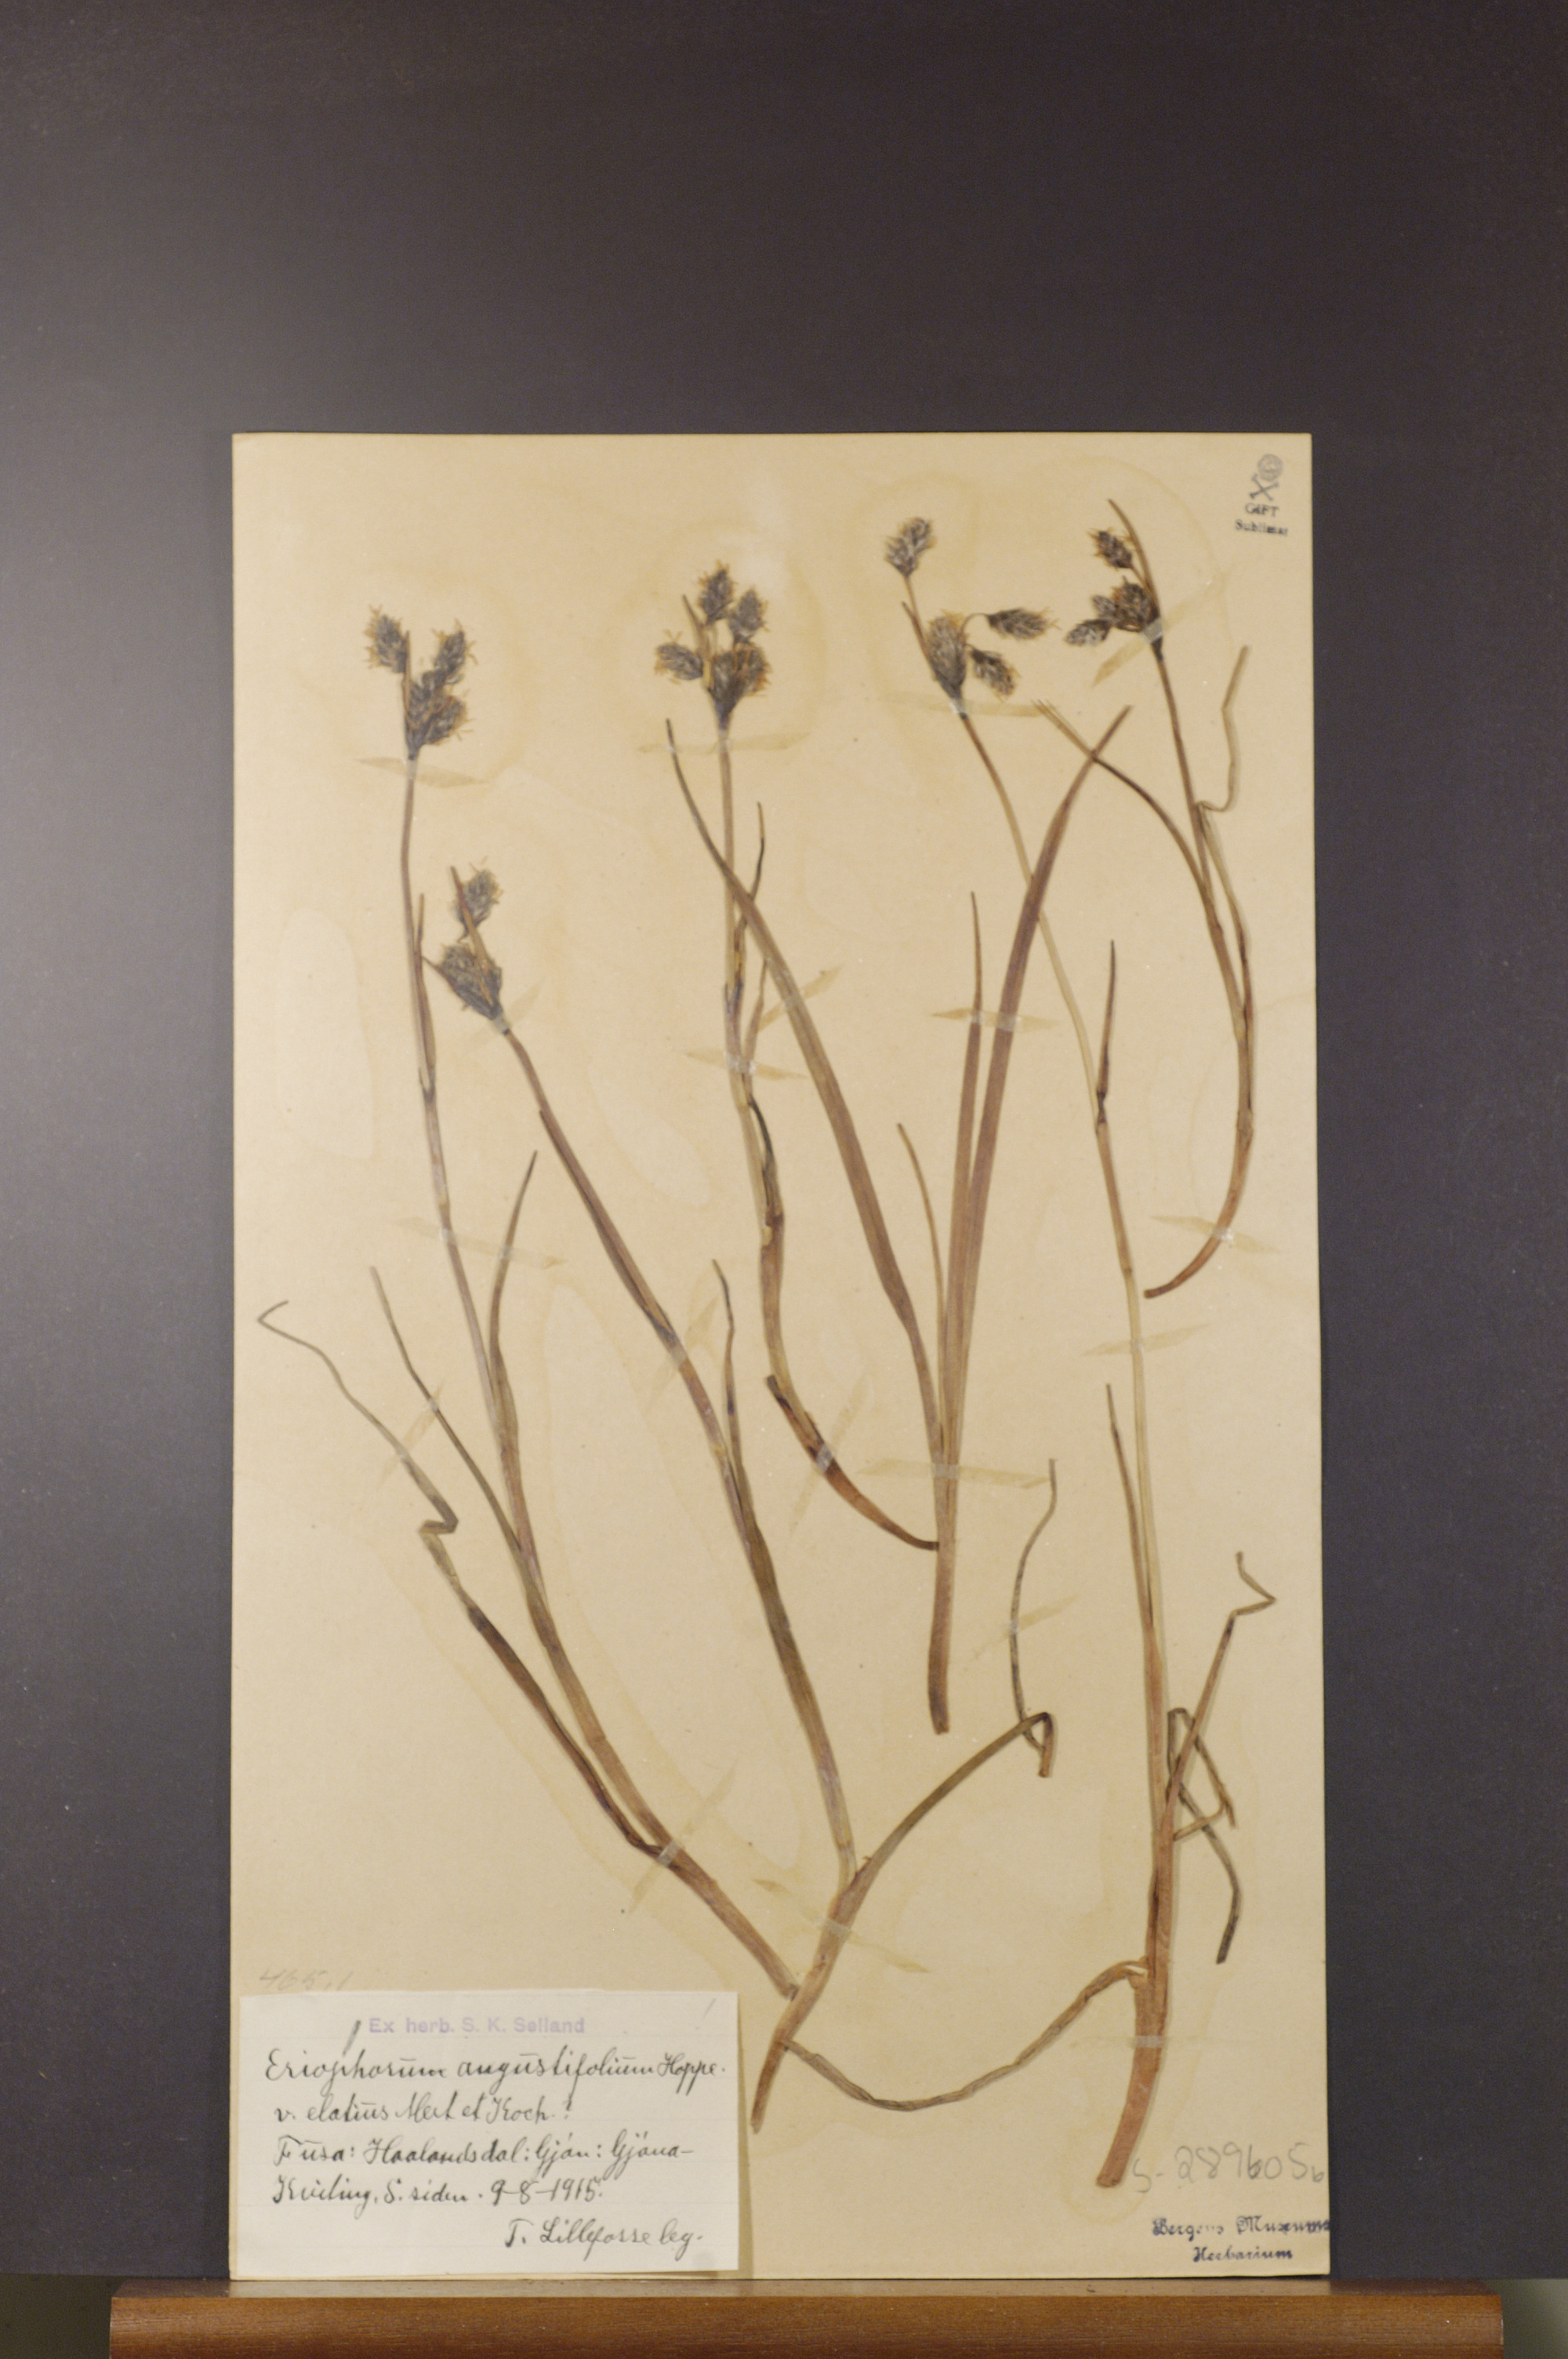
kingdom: Plantae
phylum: Tracheophyta
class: Liliopsida
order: Poales
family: Cyperaceae
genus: Eriophorum
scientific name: Eriophorum angustifolium
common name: Common cottongrass
